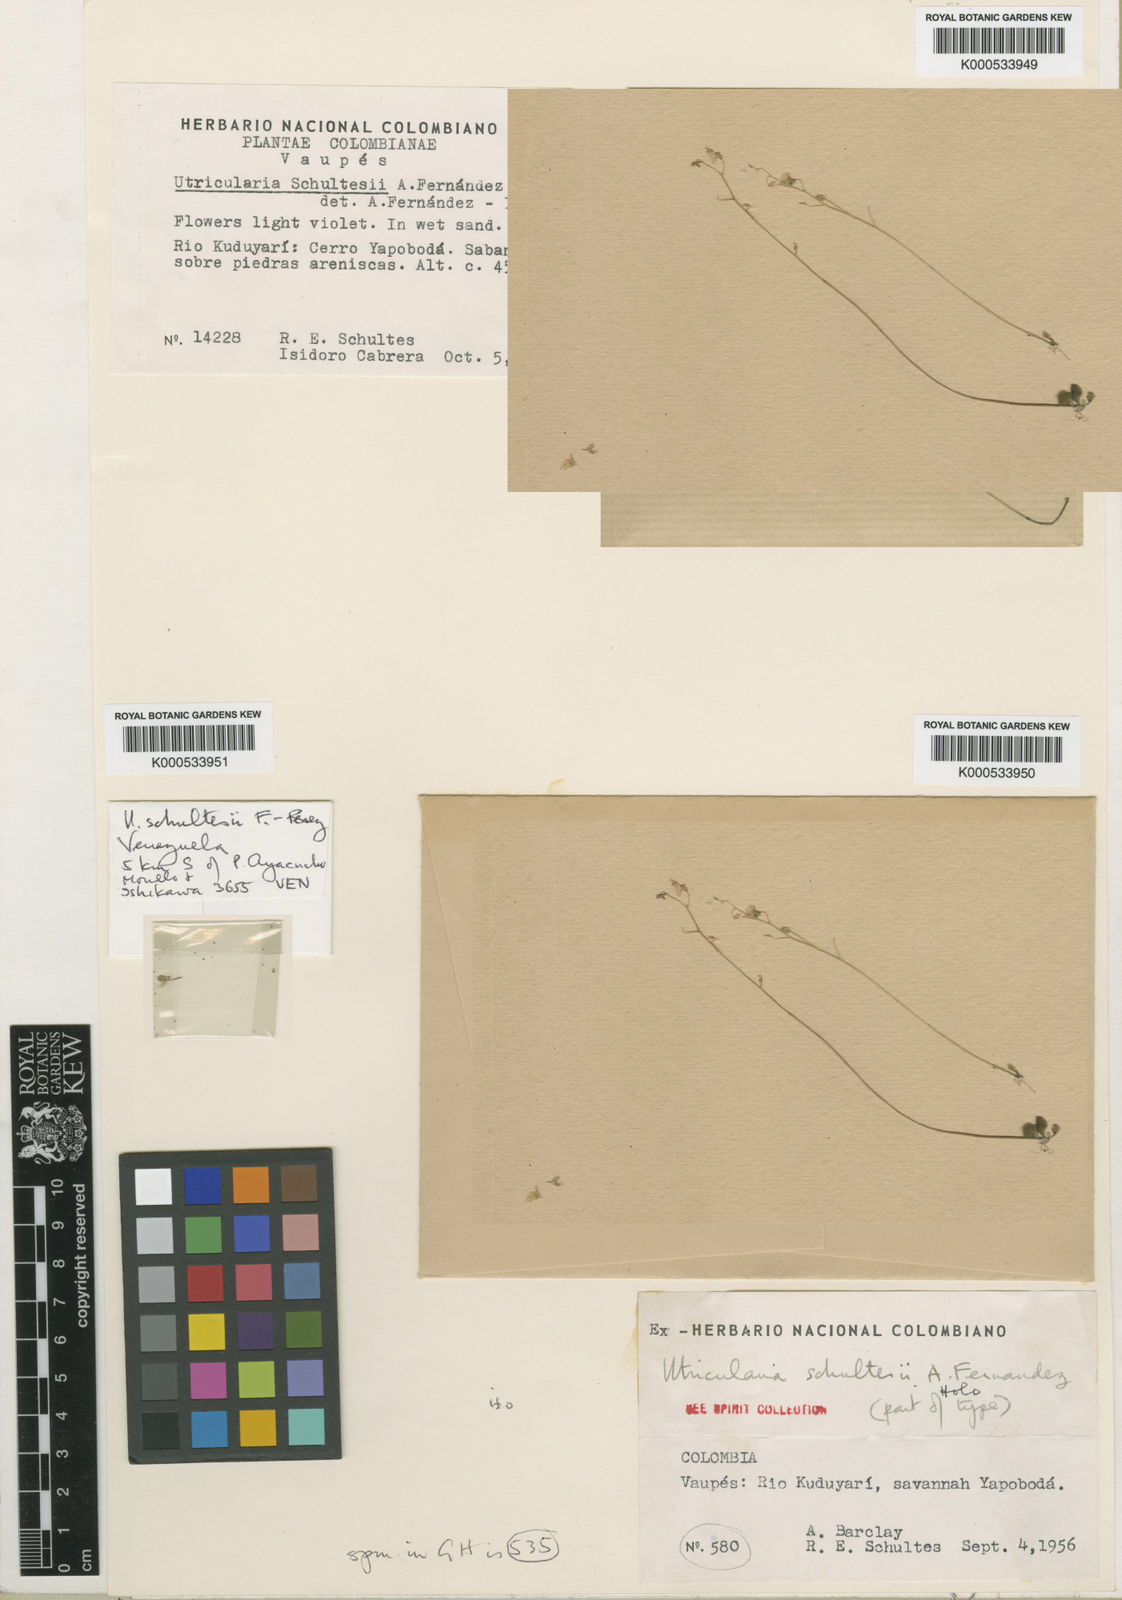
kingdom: Plantae
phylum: Tracheophyta
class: Magnoliopsida
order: Lamiales
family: Lentibulariaceae
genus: Utricularia
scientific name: Utricularia
